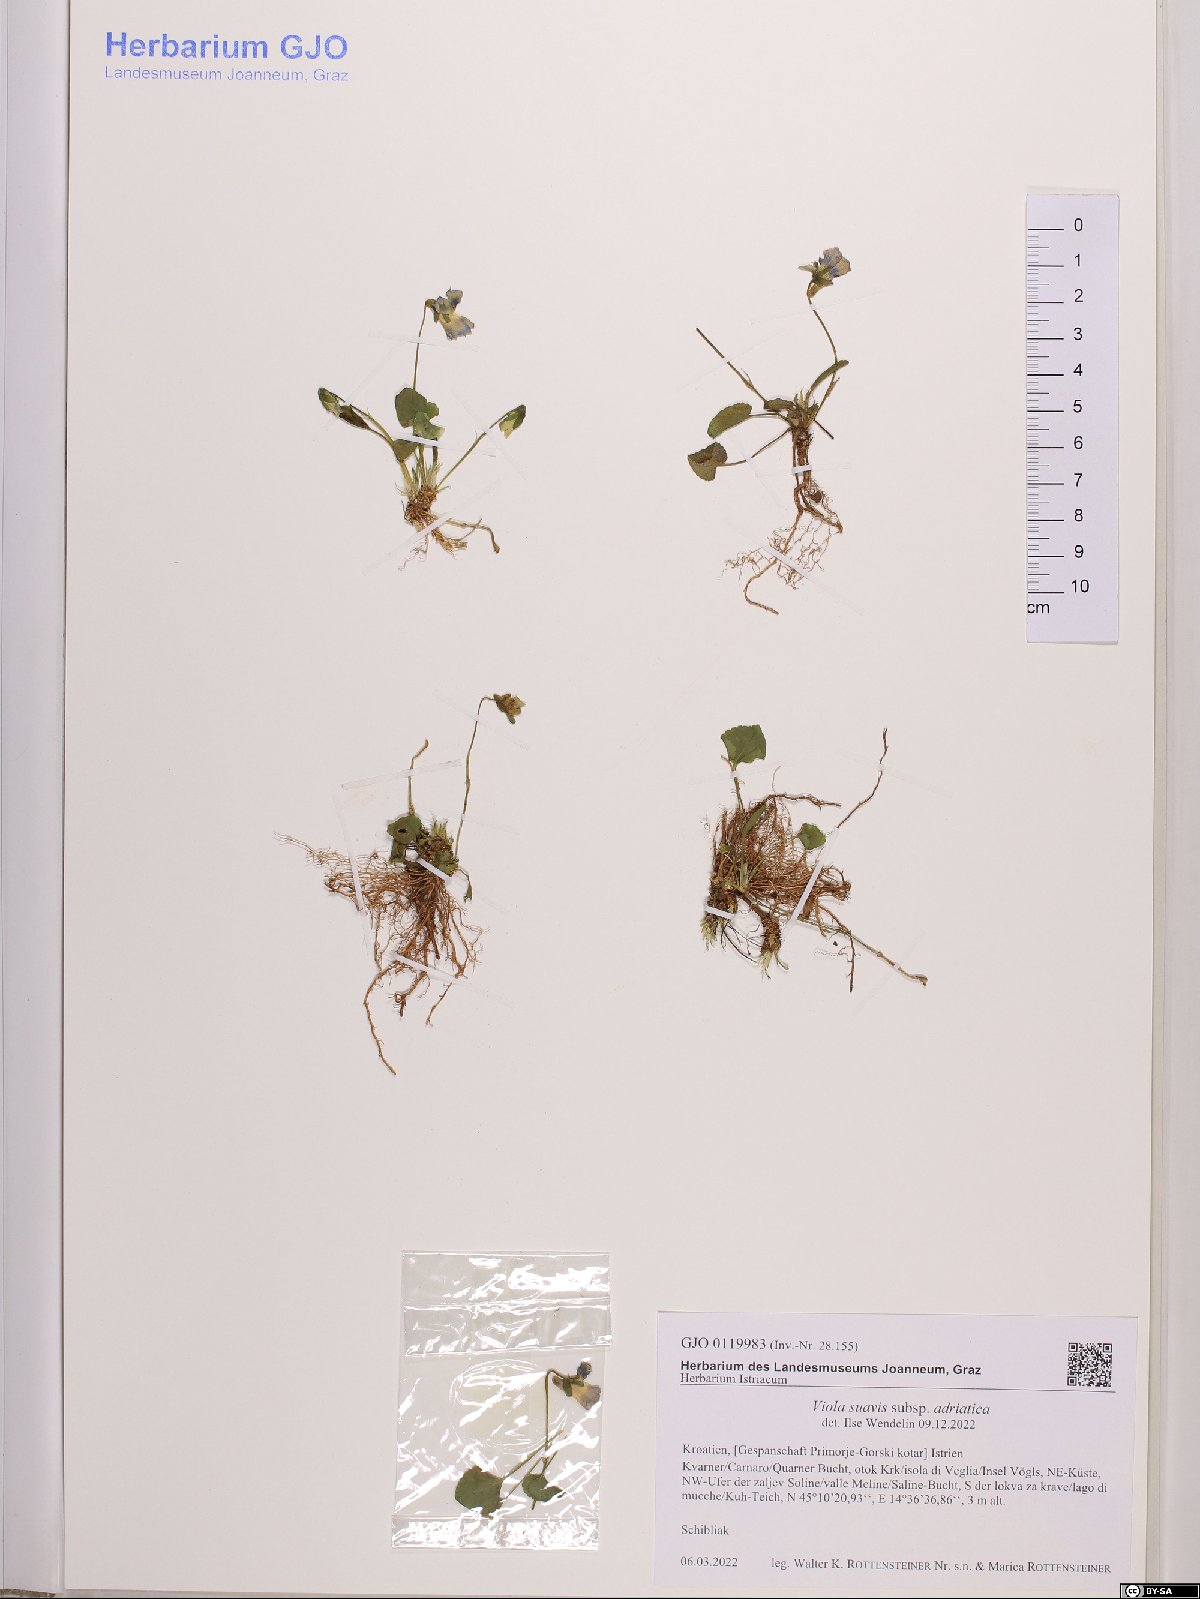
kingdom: Plantae
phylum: Tracheophyta
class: Magnoliopsida
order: Malpighiales
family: Violaceae
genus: Viola
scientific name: Viola suavis
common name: Russian violet
